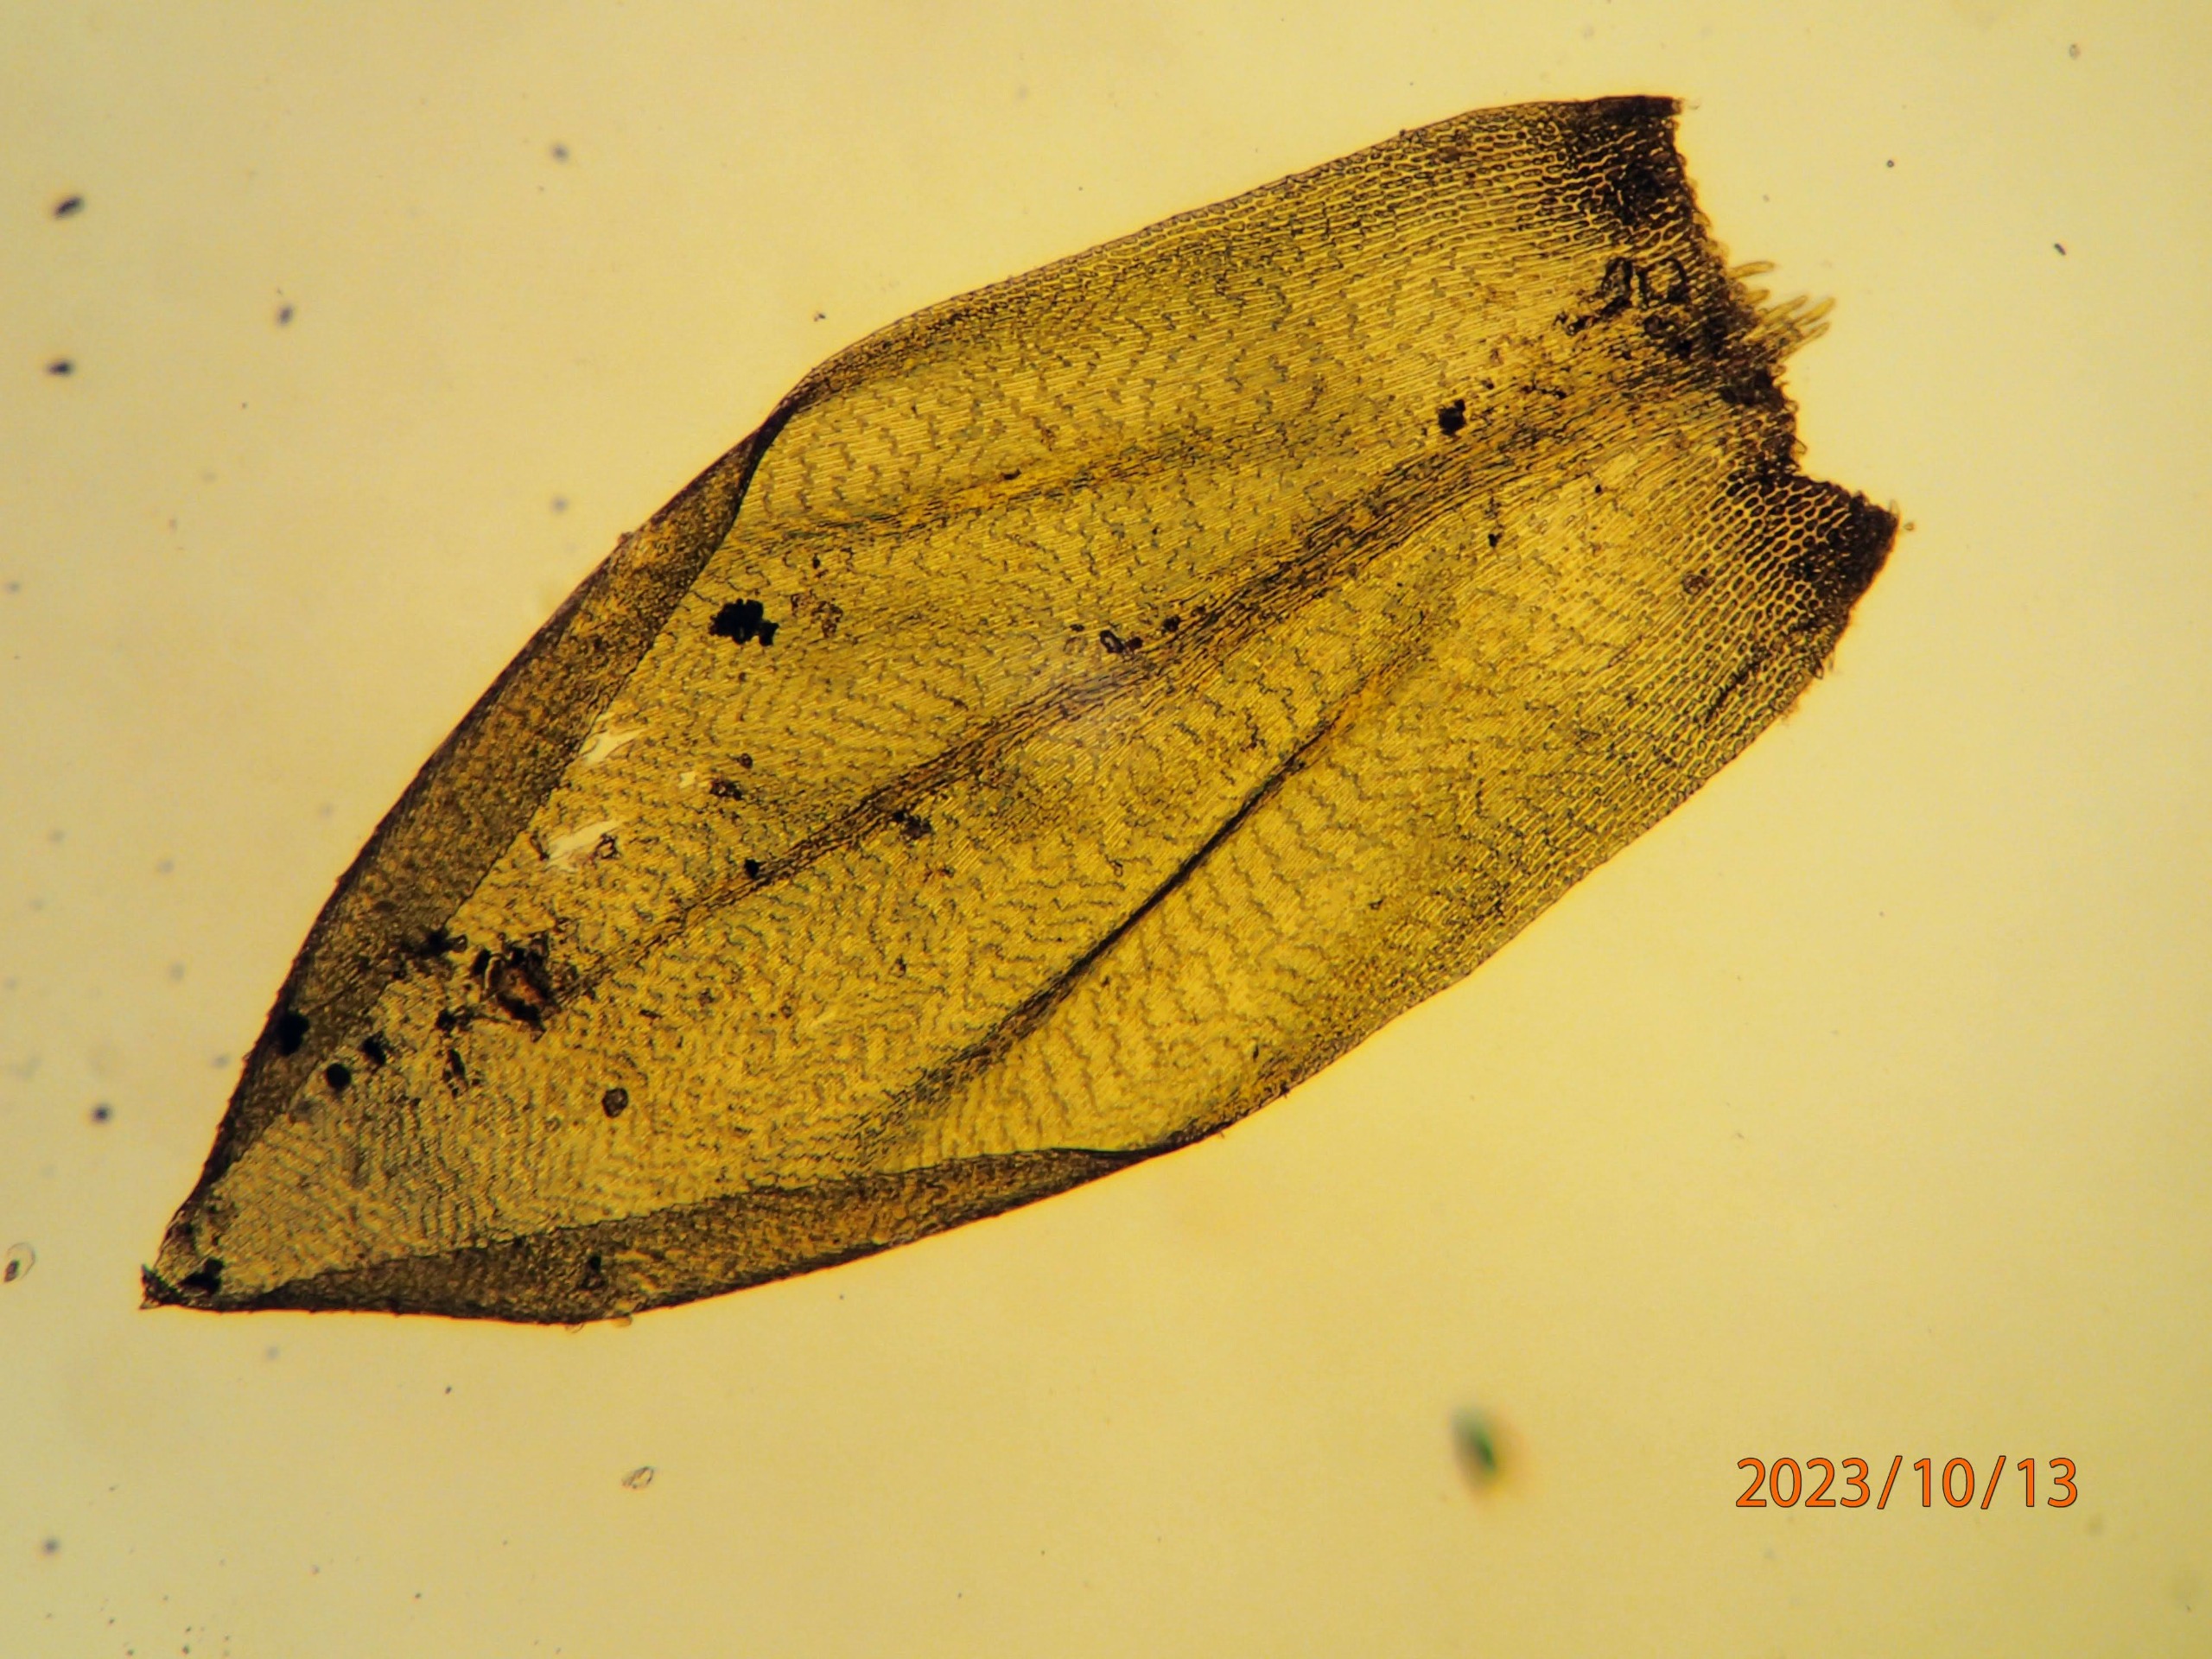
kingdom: Plantae
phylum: Bryophyta
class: Bryopsida
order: Hypnales
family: Lembophyllaceae
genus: Isothecium
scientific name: Isothecium alopecuroides
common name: Stor stammemos
